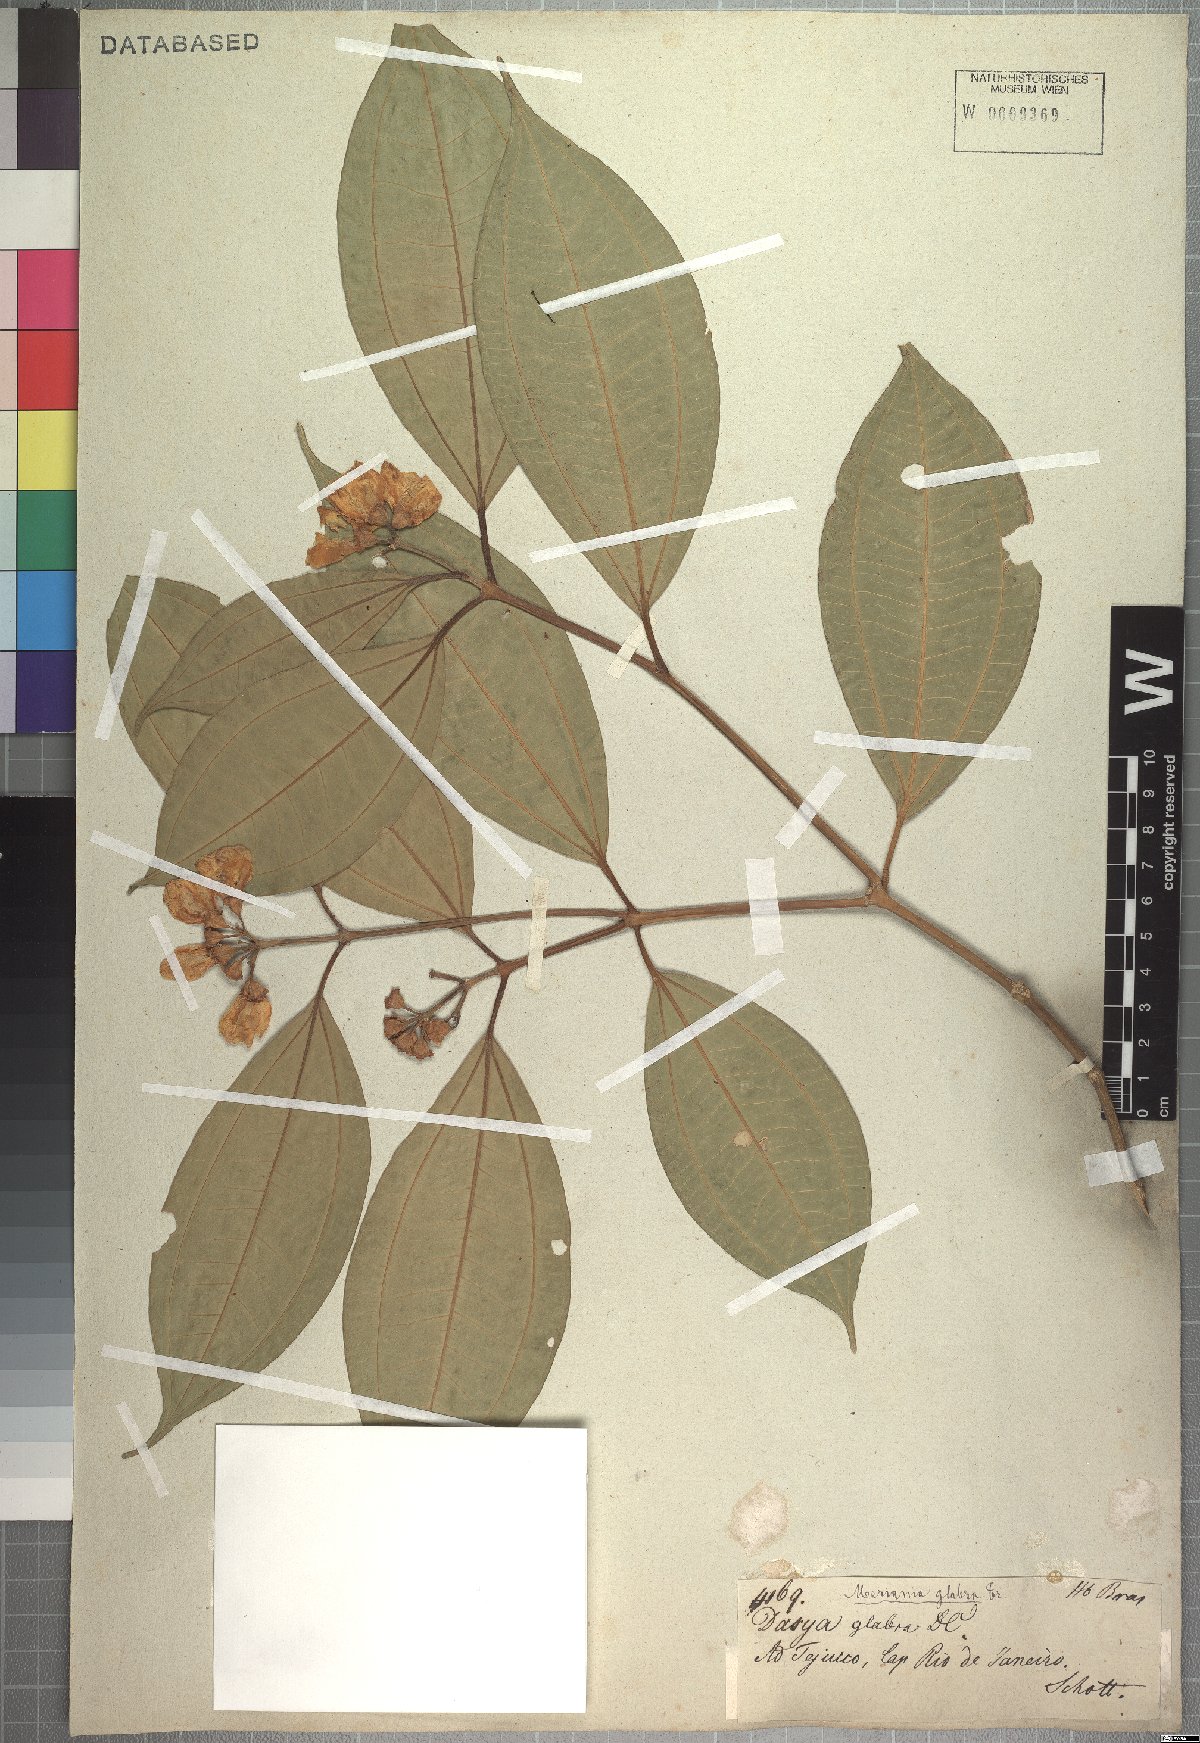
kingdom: Plantae
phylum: Tracheophyta
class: Magnoliopsida
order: Myrtales
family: Melastomataceae
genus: Meriania
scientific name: Meriania glabra
